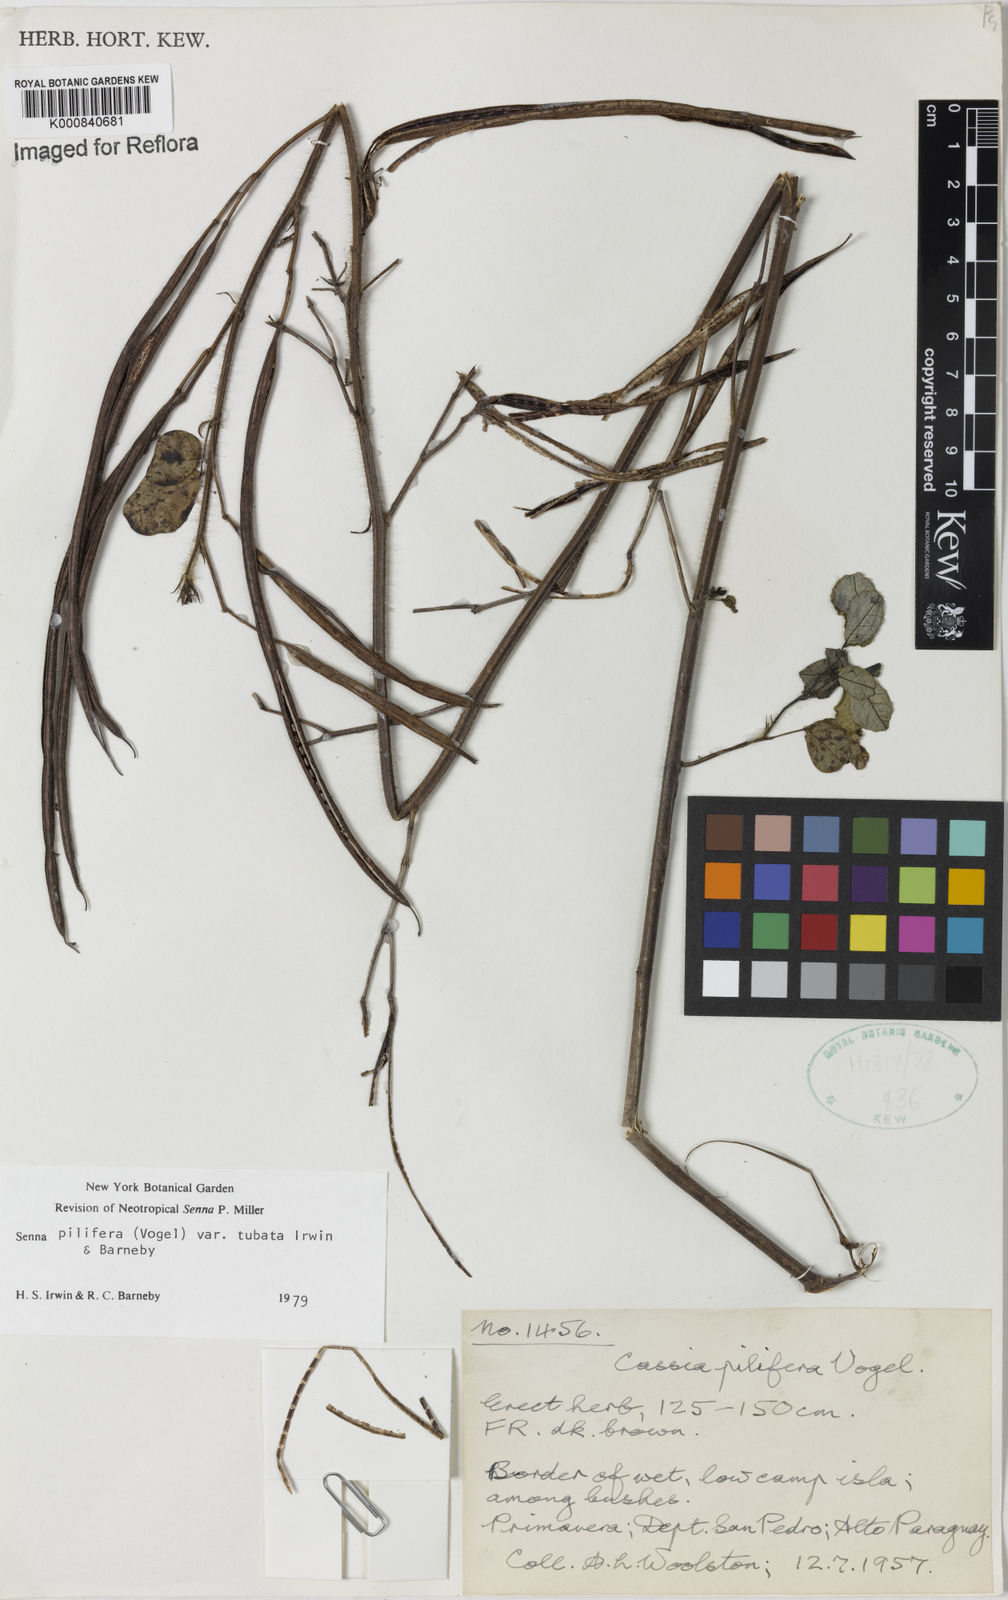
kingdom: Plantae
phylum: Tracheophyta
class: Magnoliopsida
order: Fabales
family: Fabaceae
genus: Senna
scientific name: Senna pilifera
